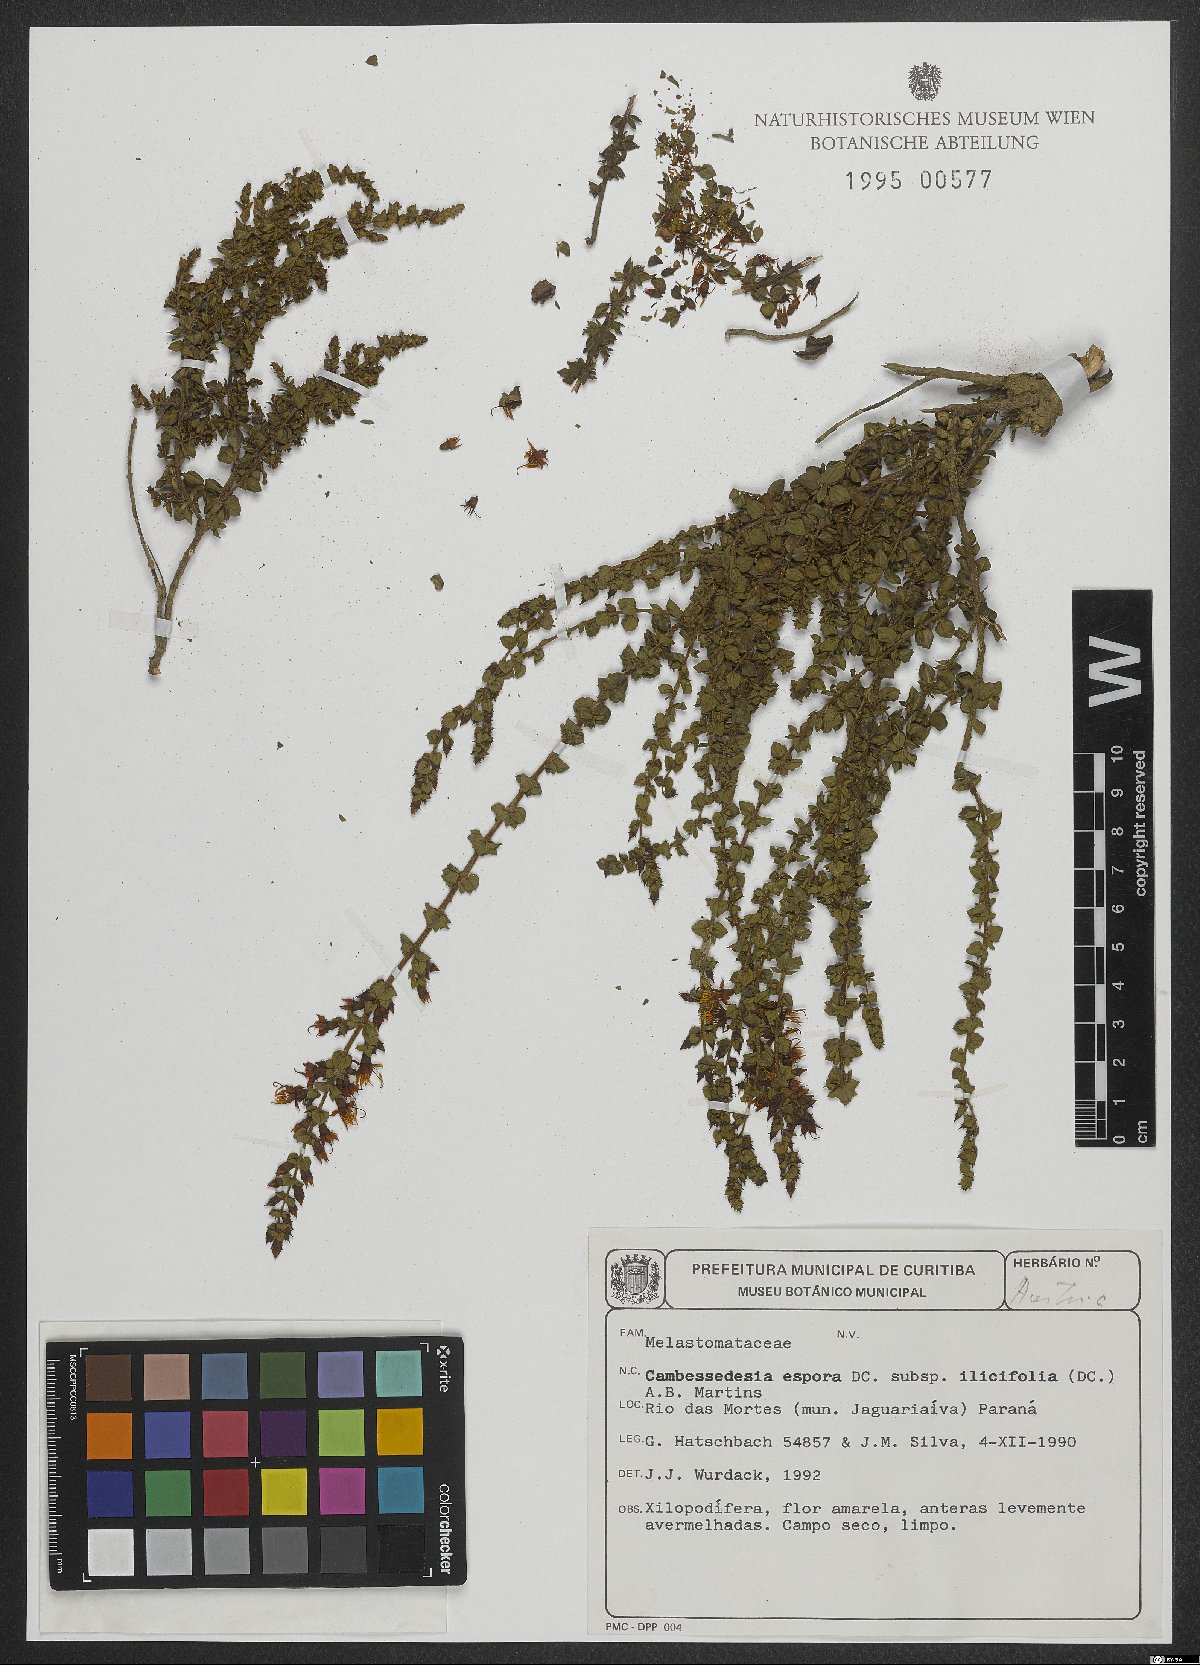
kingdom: Plantae
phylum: Tracheophyta
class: Magnoliopsida
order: Myrtales
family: Melastomataceae
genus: Cambessedesia
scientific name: Cambessedesia espora
